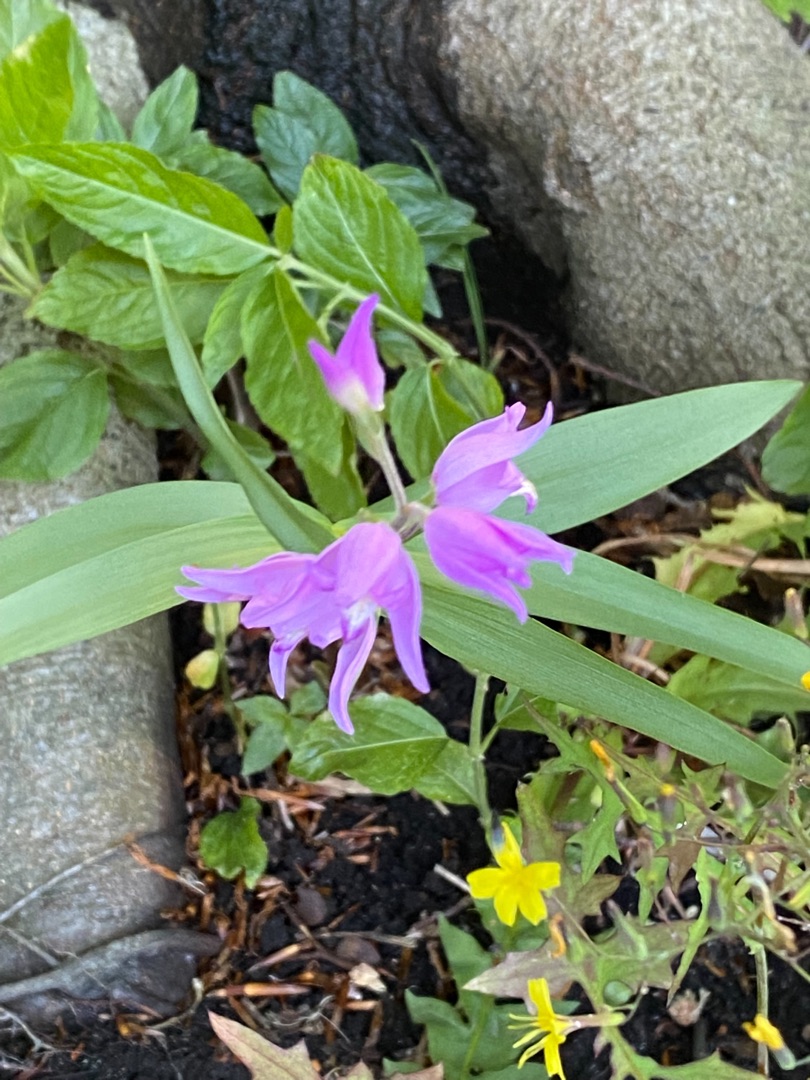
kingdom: Plantae
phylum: Tracheophyta
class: Liliopsida
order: Asparagales
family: Orchidaceae
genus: Cephalanthera
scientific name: Cephalanthera rubra
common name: Rød skovlilje
